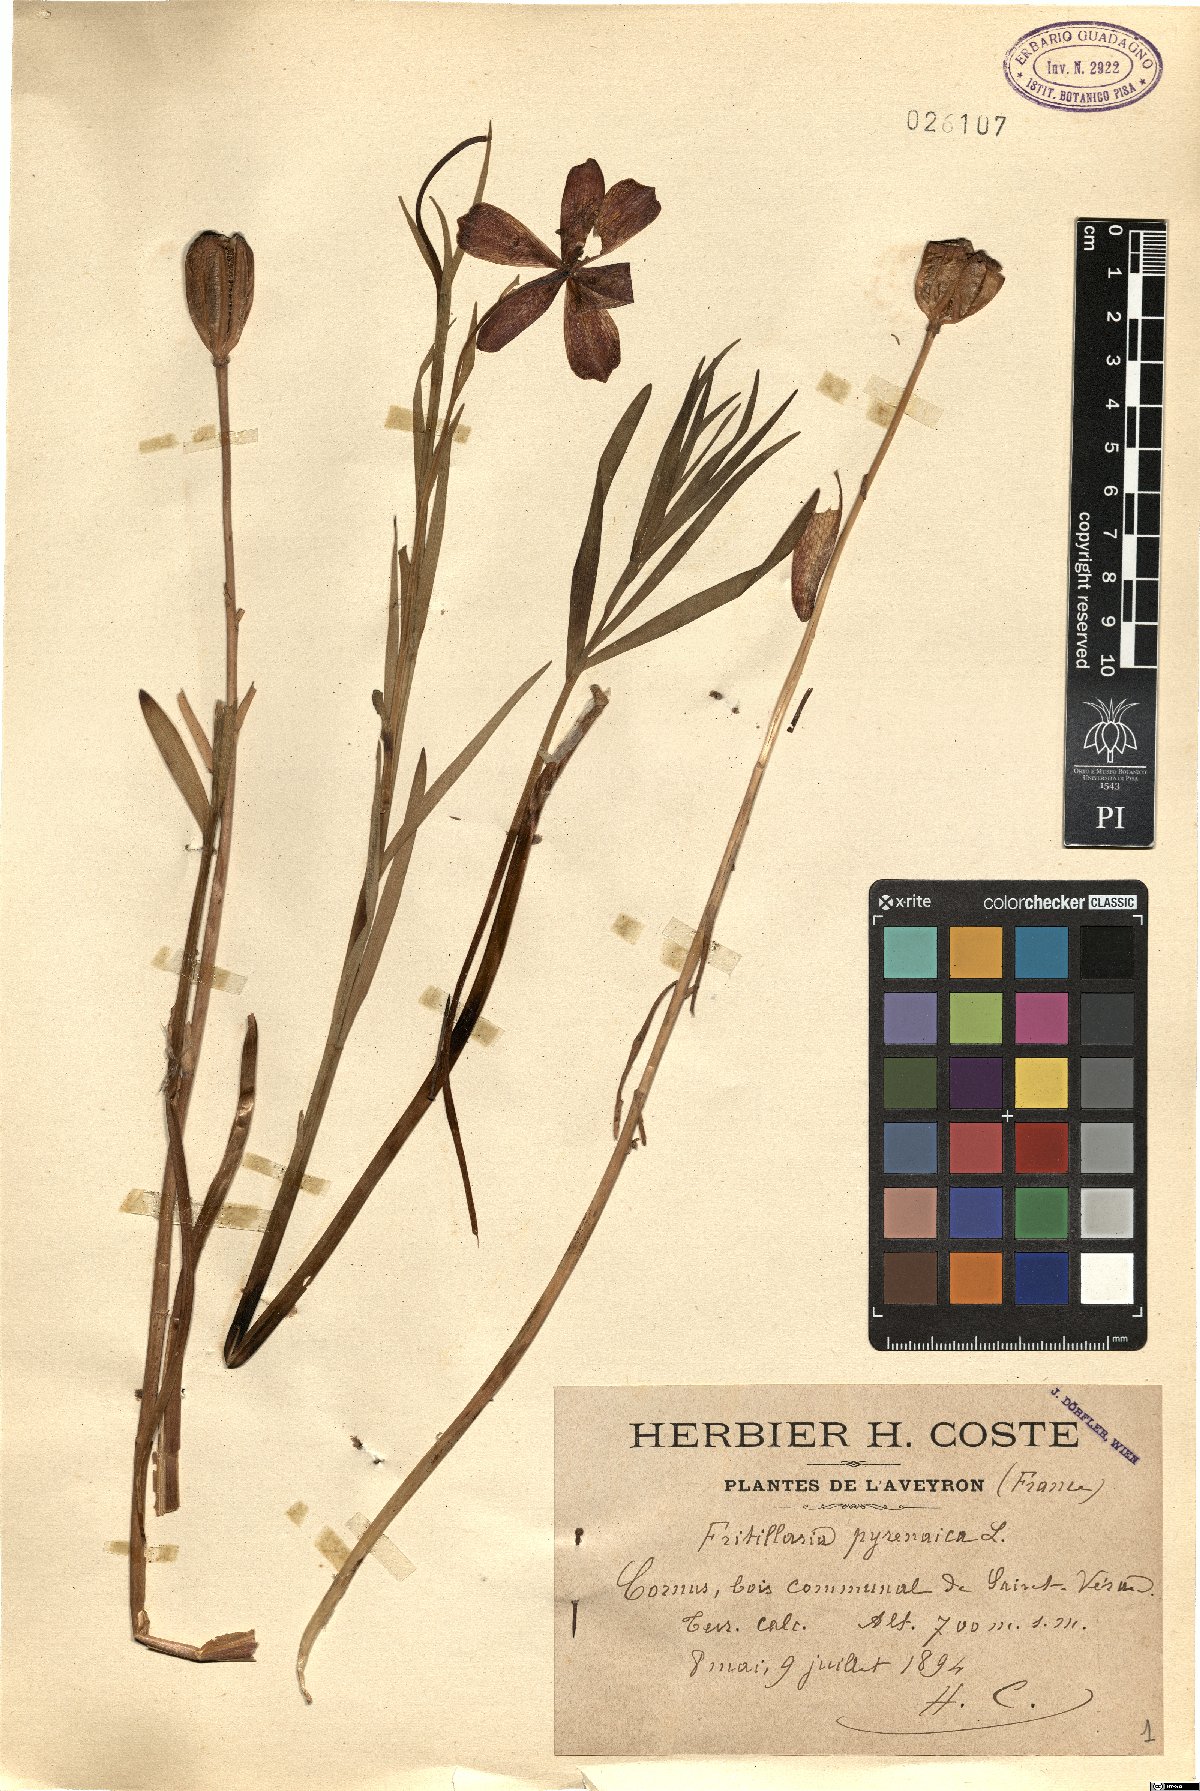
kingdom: Plantae
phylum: Tracheophyta
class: Liliopsida
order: Liliales
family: Liliaceae
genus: Fritillaria
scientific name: Fritillaria pyrenaica
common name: Pyrenean snake's-head
